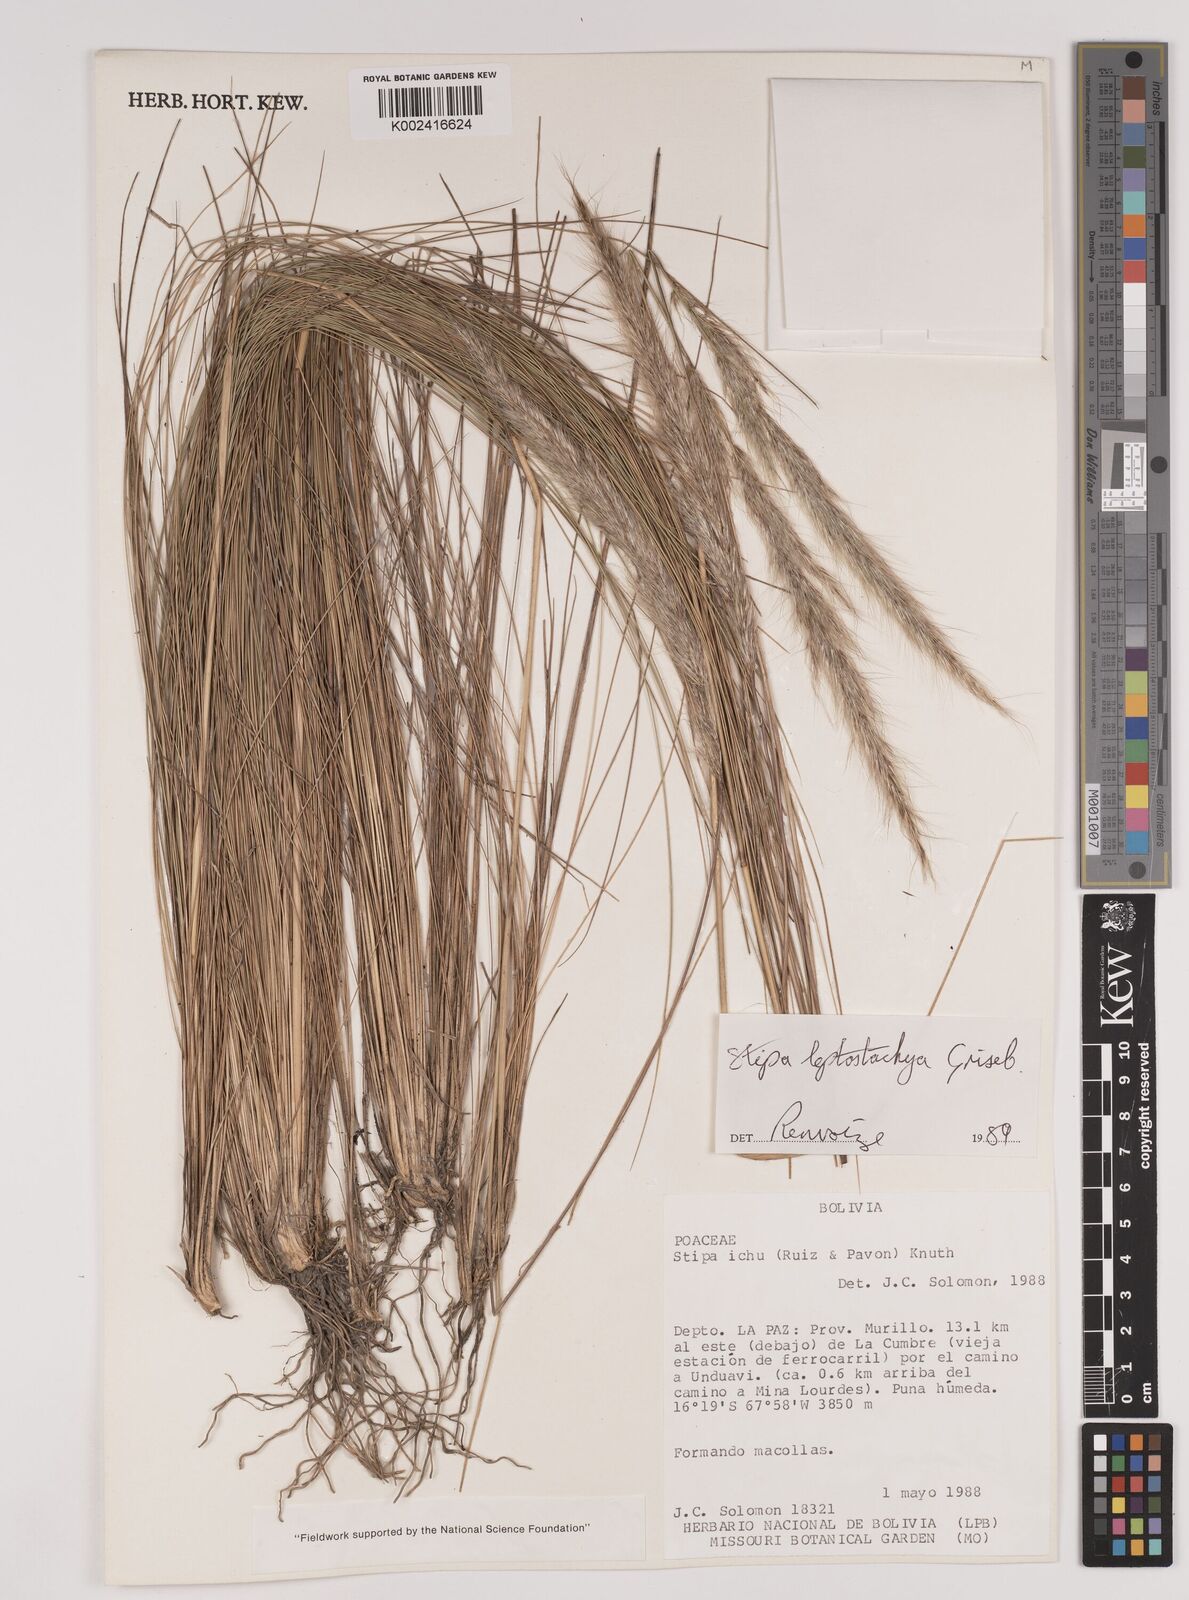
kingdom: Plantae
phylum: Tracheophyta
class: Liliopsida
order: Poales
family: Poaceae
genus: Jarava
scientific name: Jarava leptostachya
